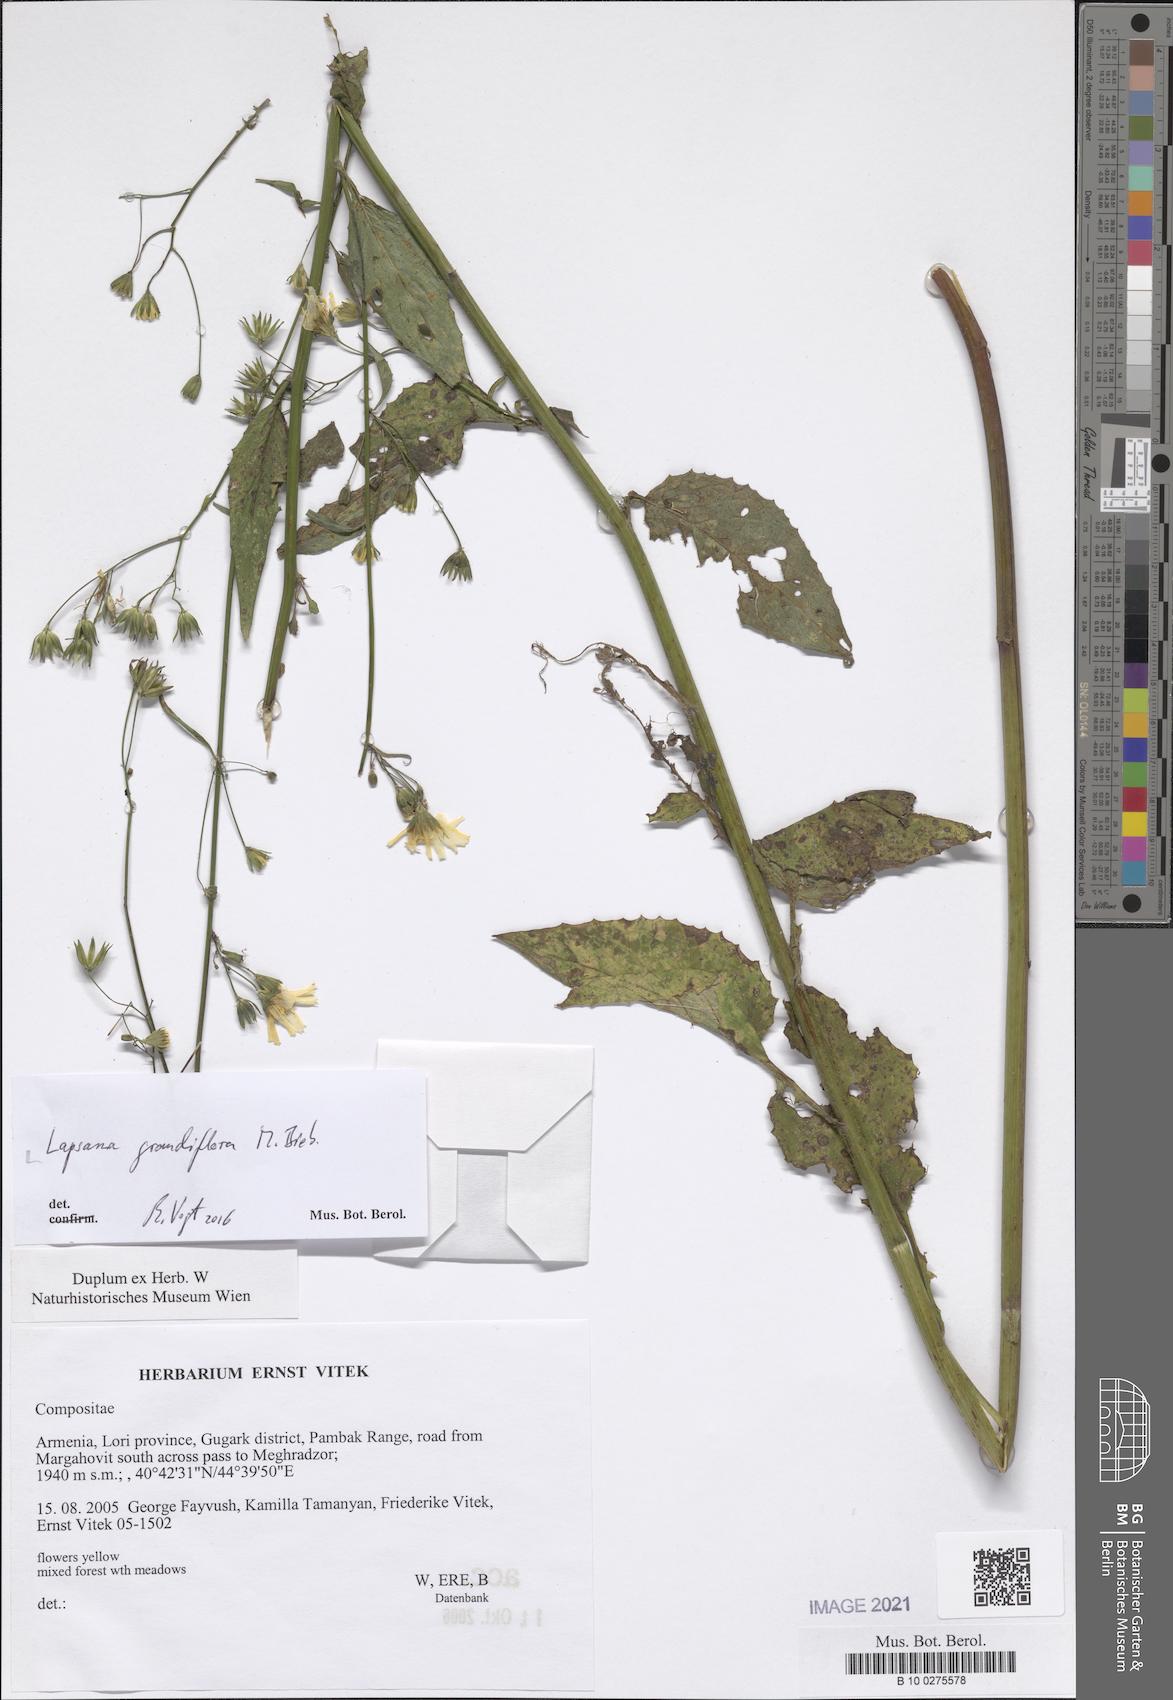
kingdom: Plantae
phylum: Tracheophyta
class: Magnoliopsida
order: Asterales
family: Asteraceae
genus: Lapsana
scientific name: Lapsana communis
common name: Nipplewort
